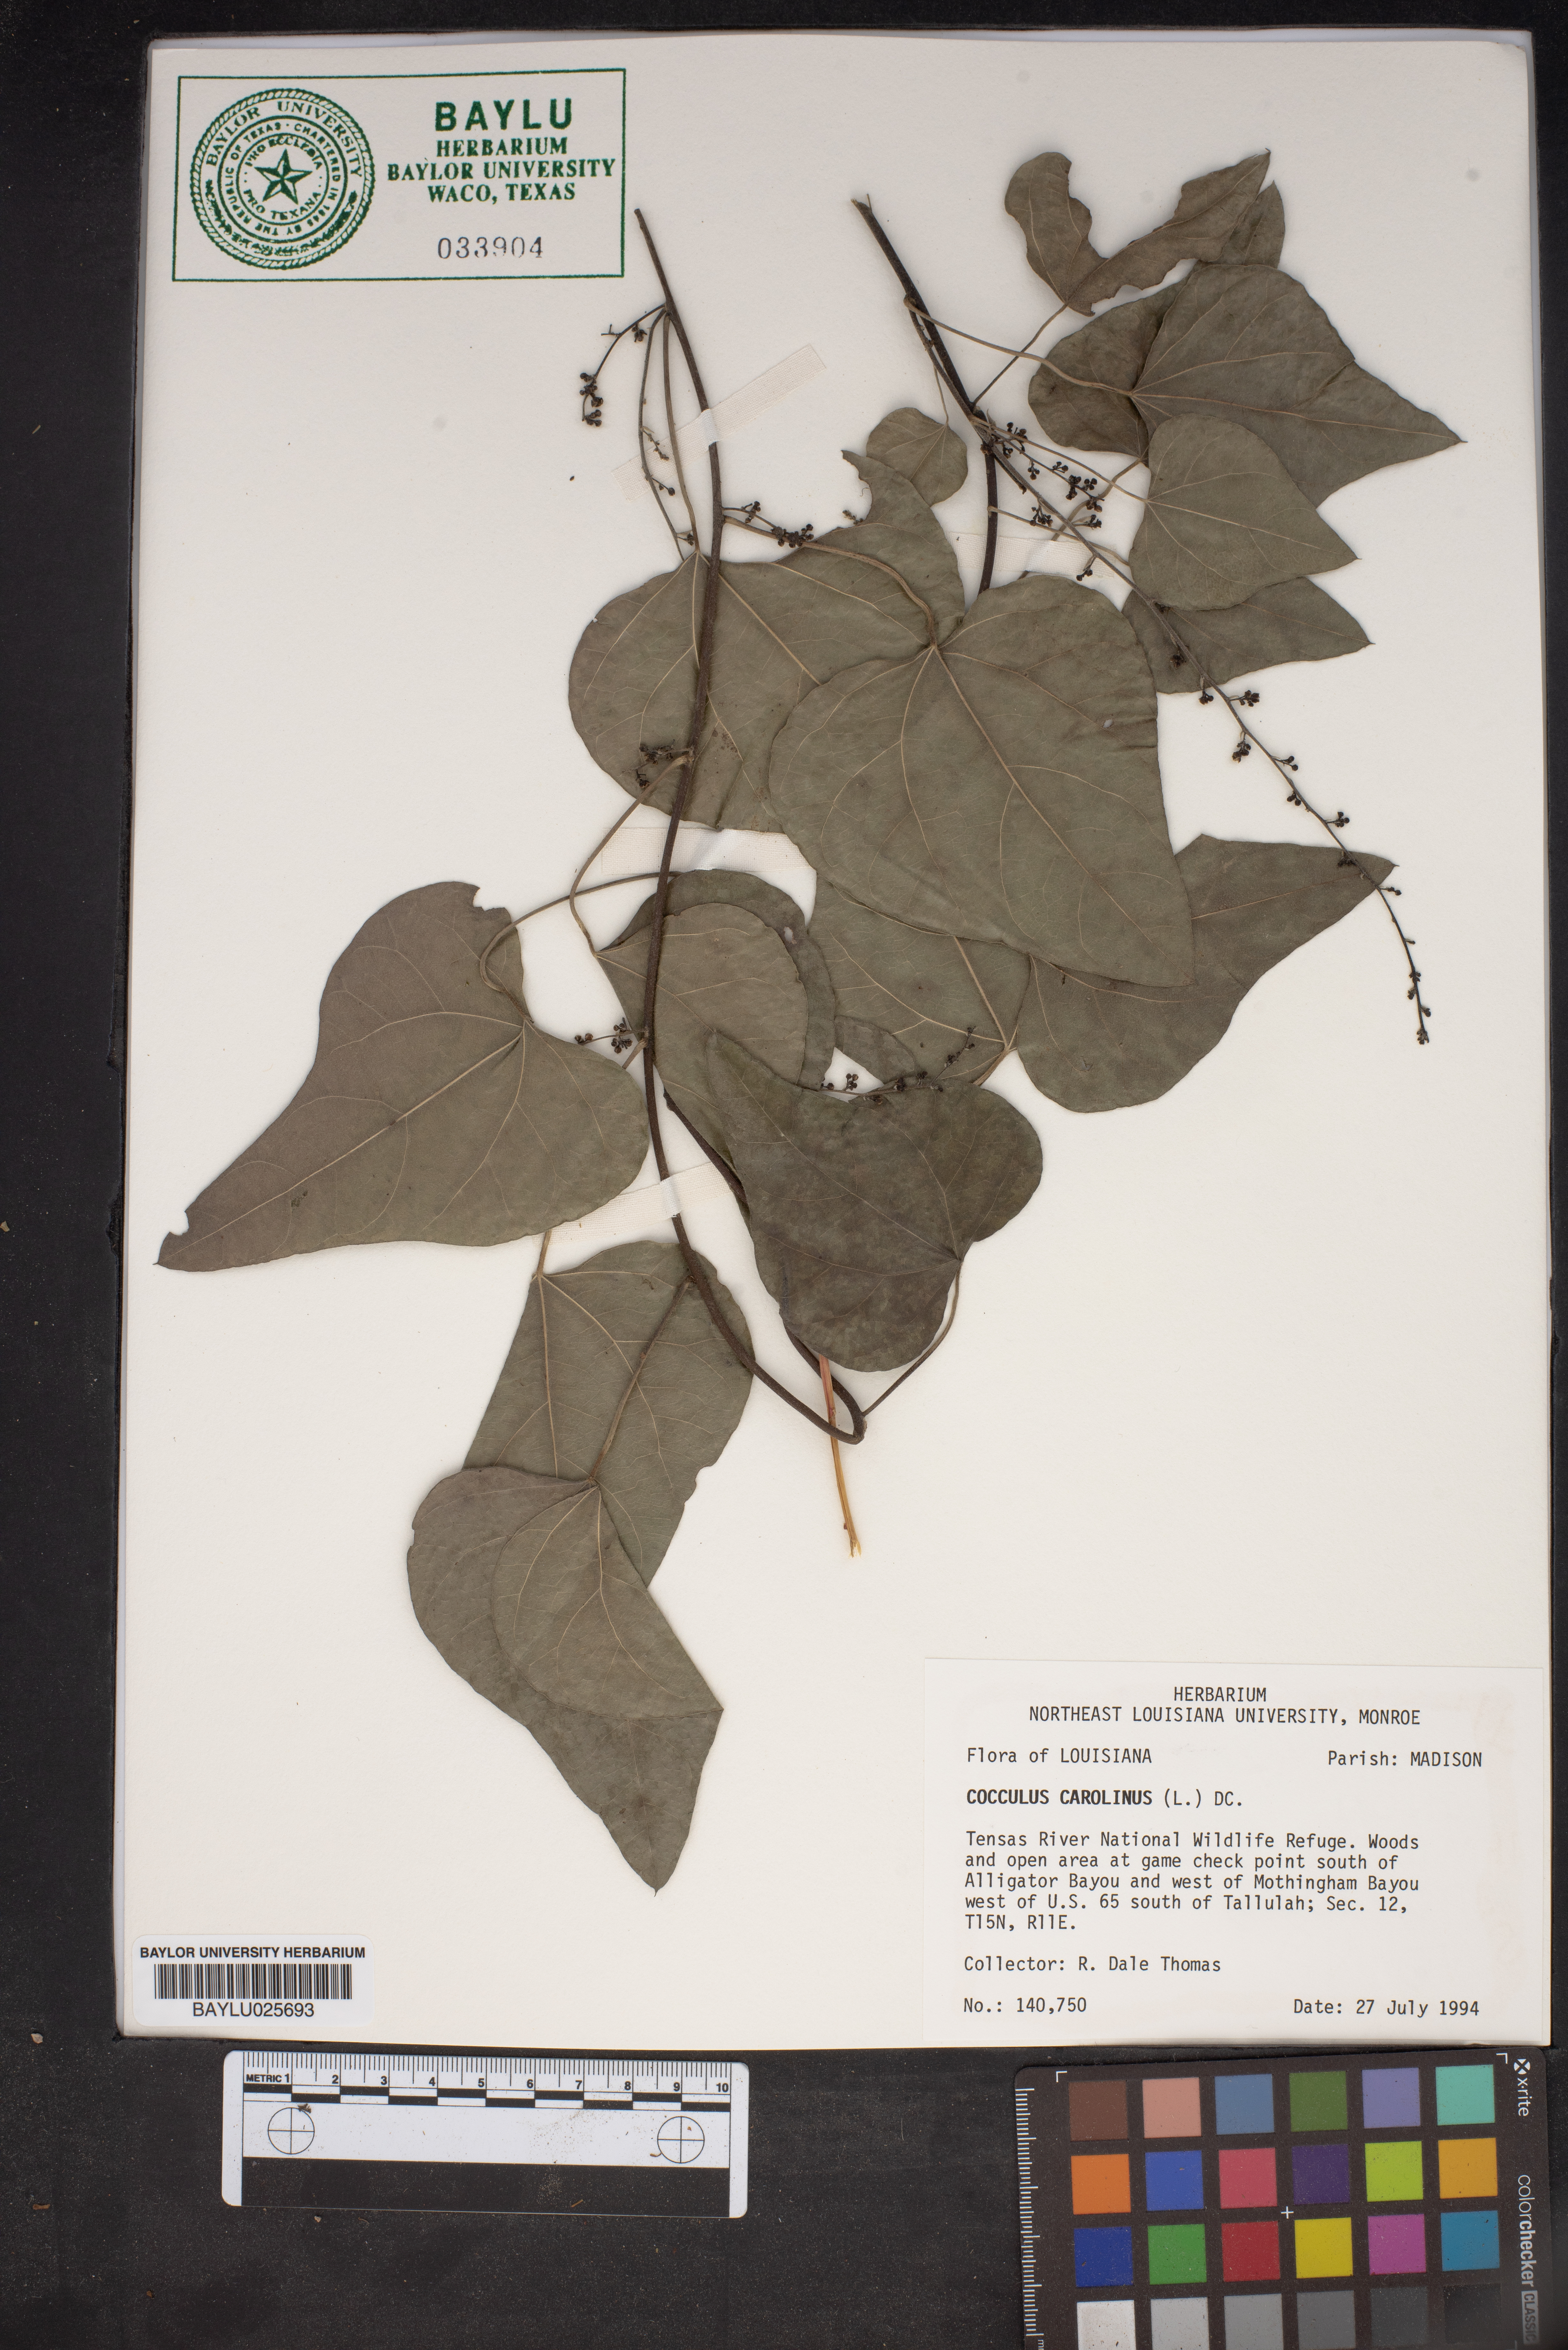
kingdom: Plantae
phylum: Tracheophyta
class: Magnoliopsida
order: Ranunculales
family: Menispermaceae
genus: Cocculus
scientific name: Cocculus carolinus
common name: Carolina moonseed
